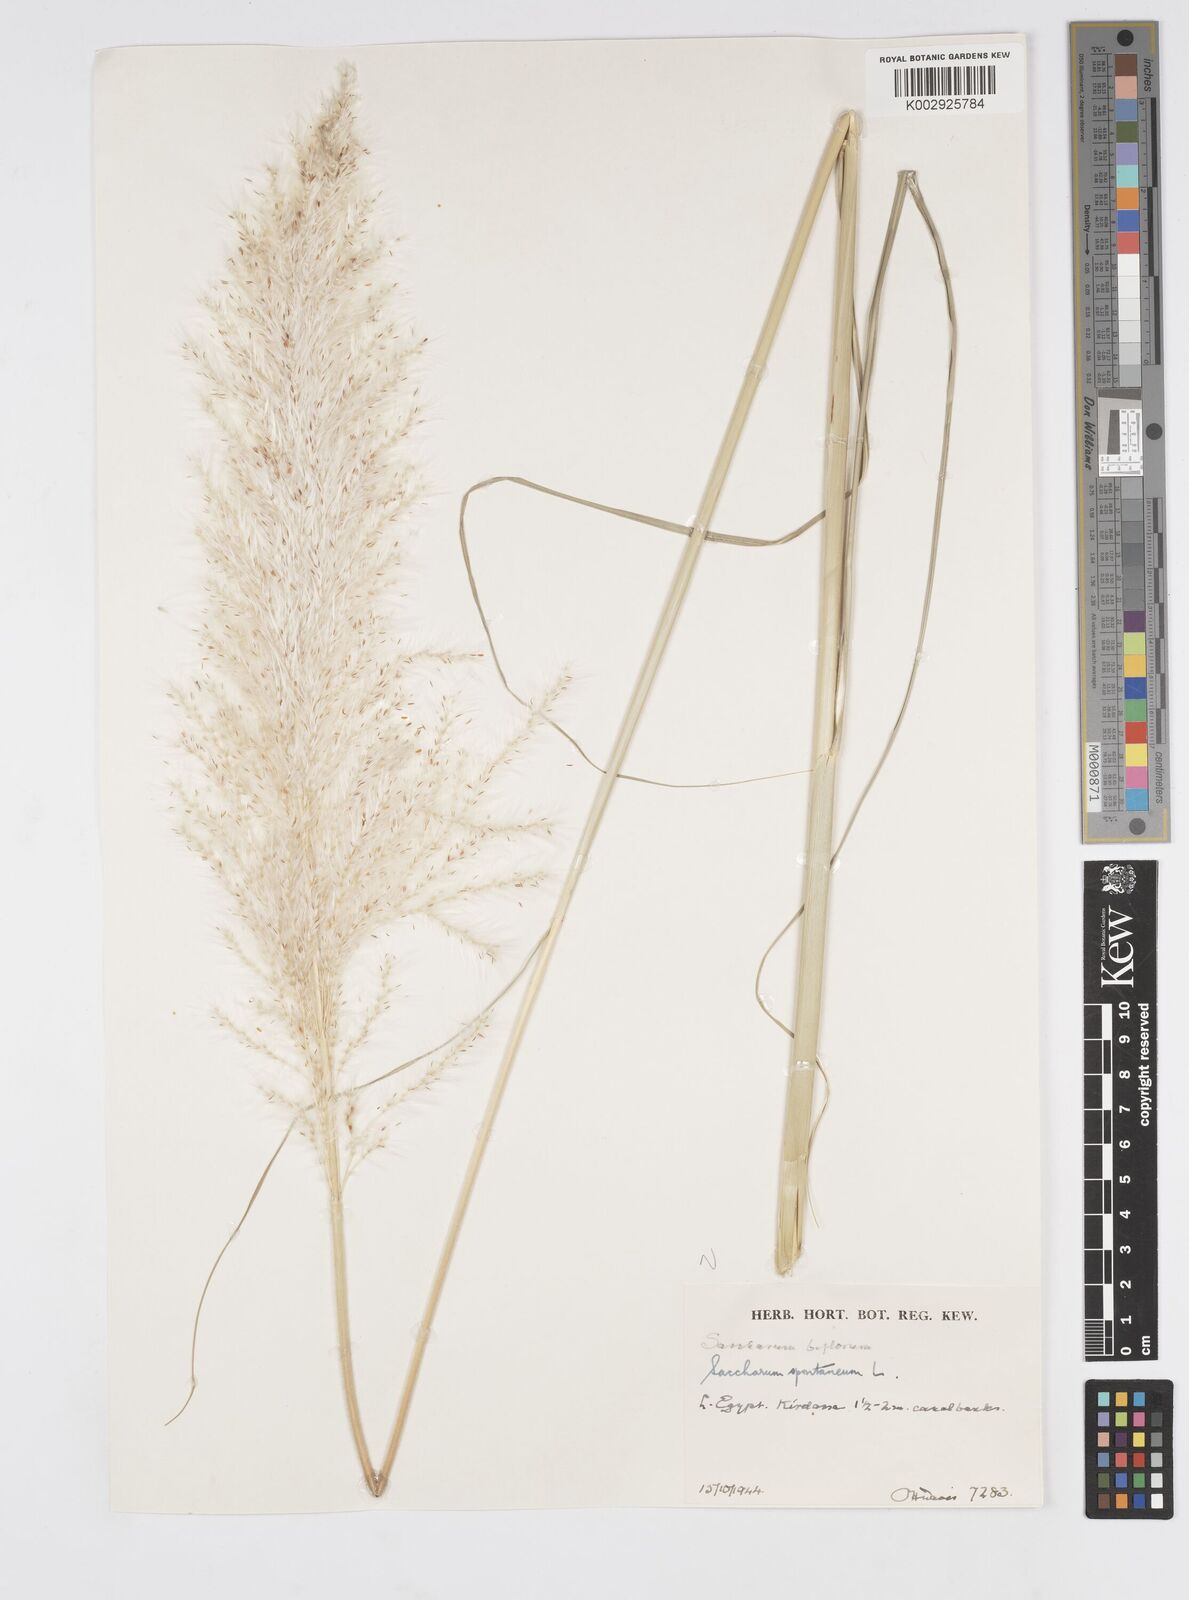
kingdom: Plantae
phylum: Tracheophyta
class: Liliopsida
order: Poales
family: Poaceae
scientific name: Poaceae
